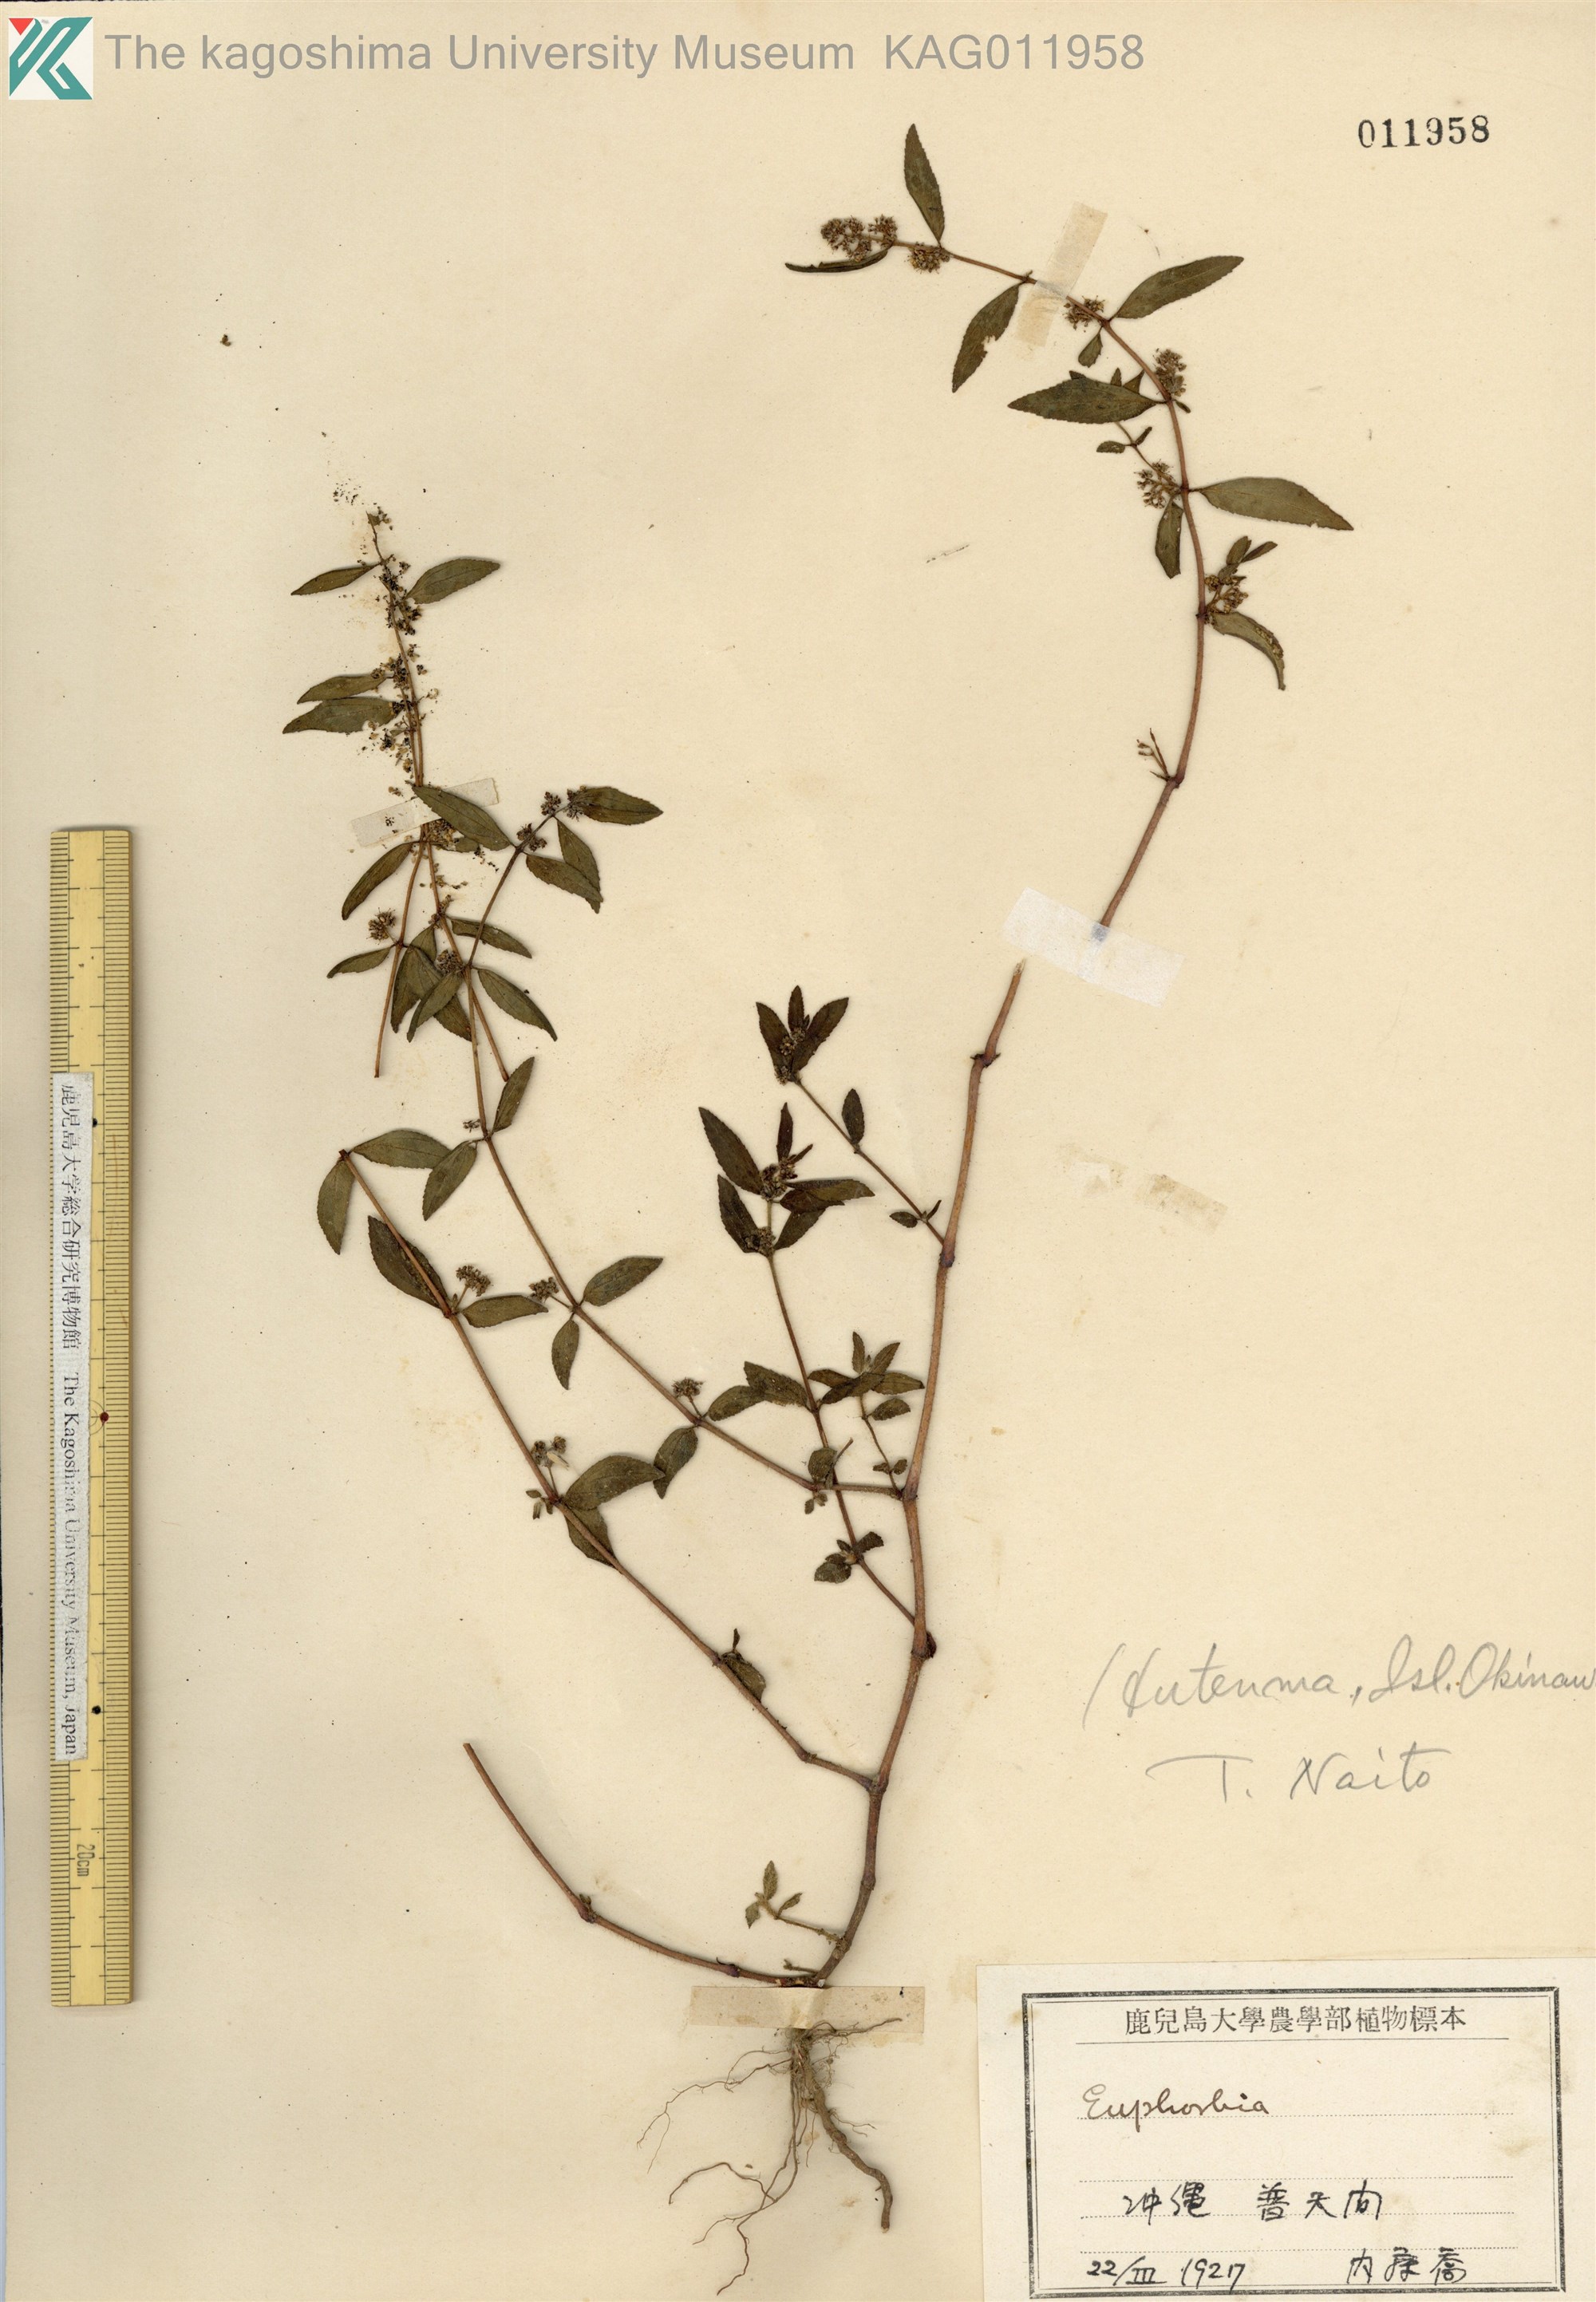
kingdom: Plantae
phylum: Tracheophyta
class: Magnoliopsida
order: Malpighiales
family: Euphorbiaceae
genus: Euphorbia
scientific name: Euphorbia hirta
